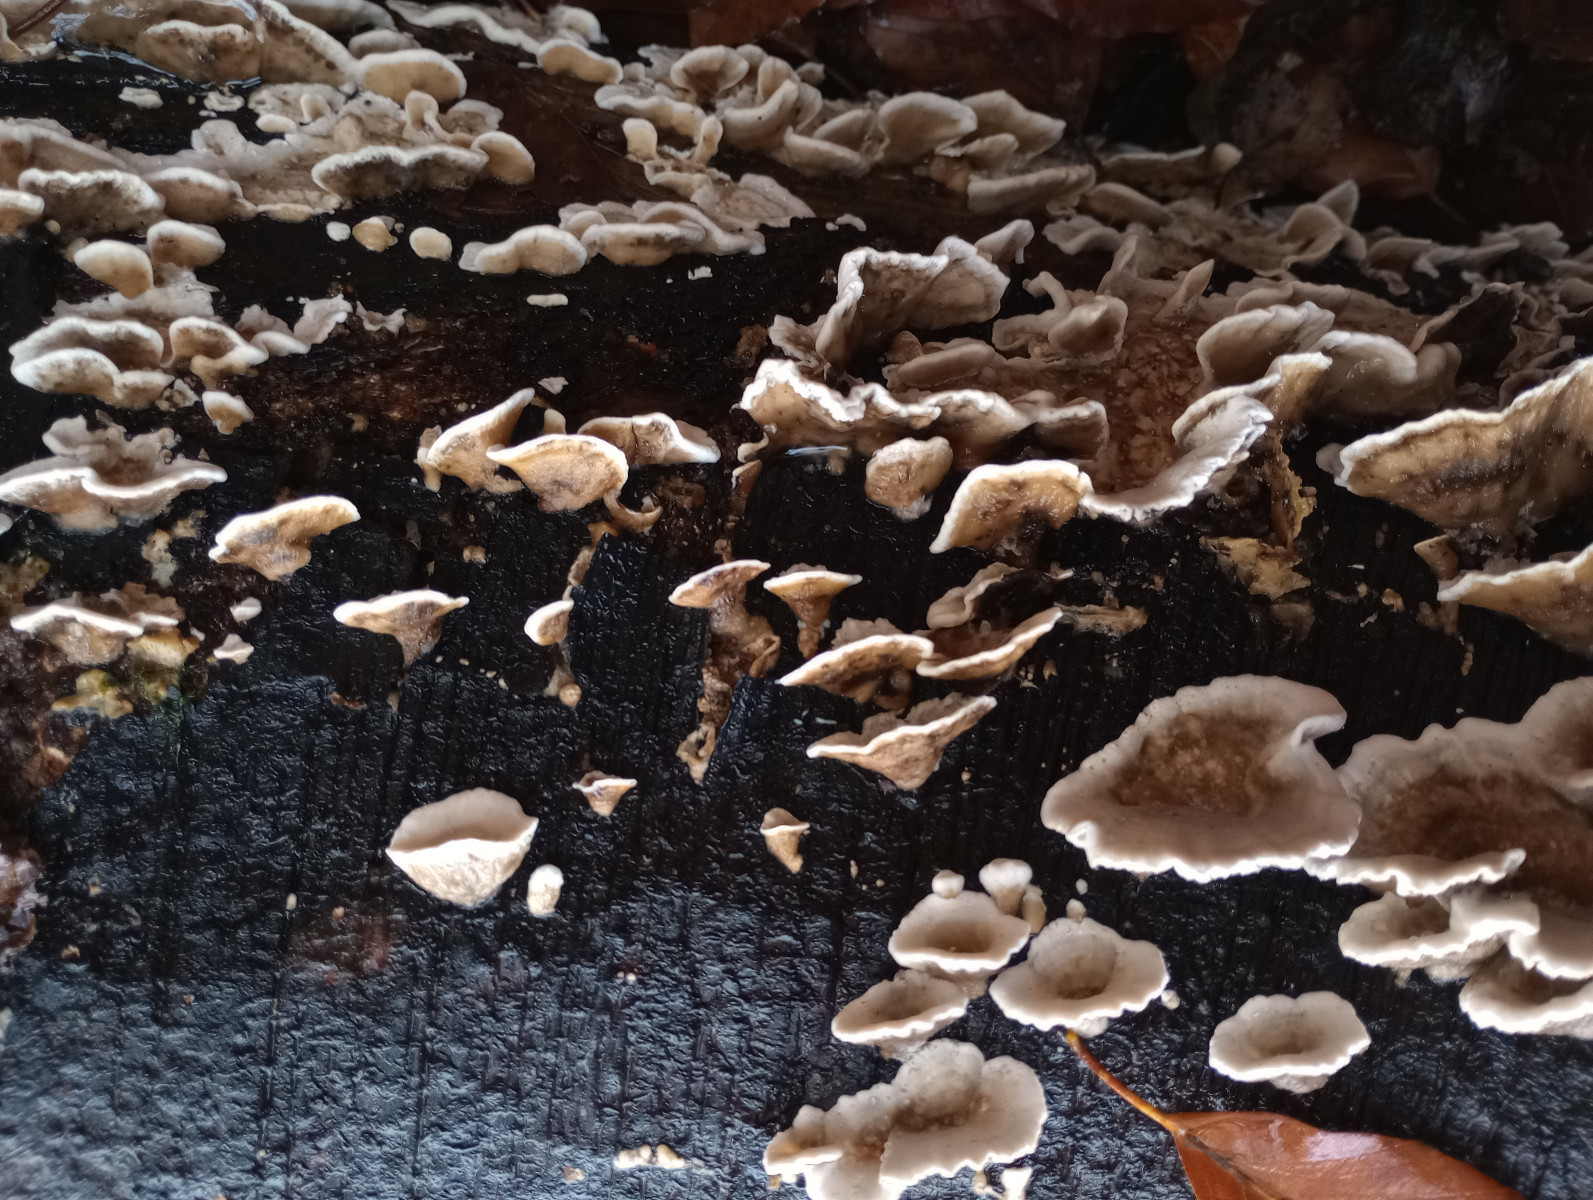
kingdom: Fungi
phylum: Basidiomycota
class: Agaricomycetes
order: Polyporales
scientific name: Polyporales
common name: poresvampordenen
